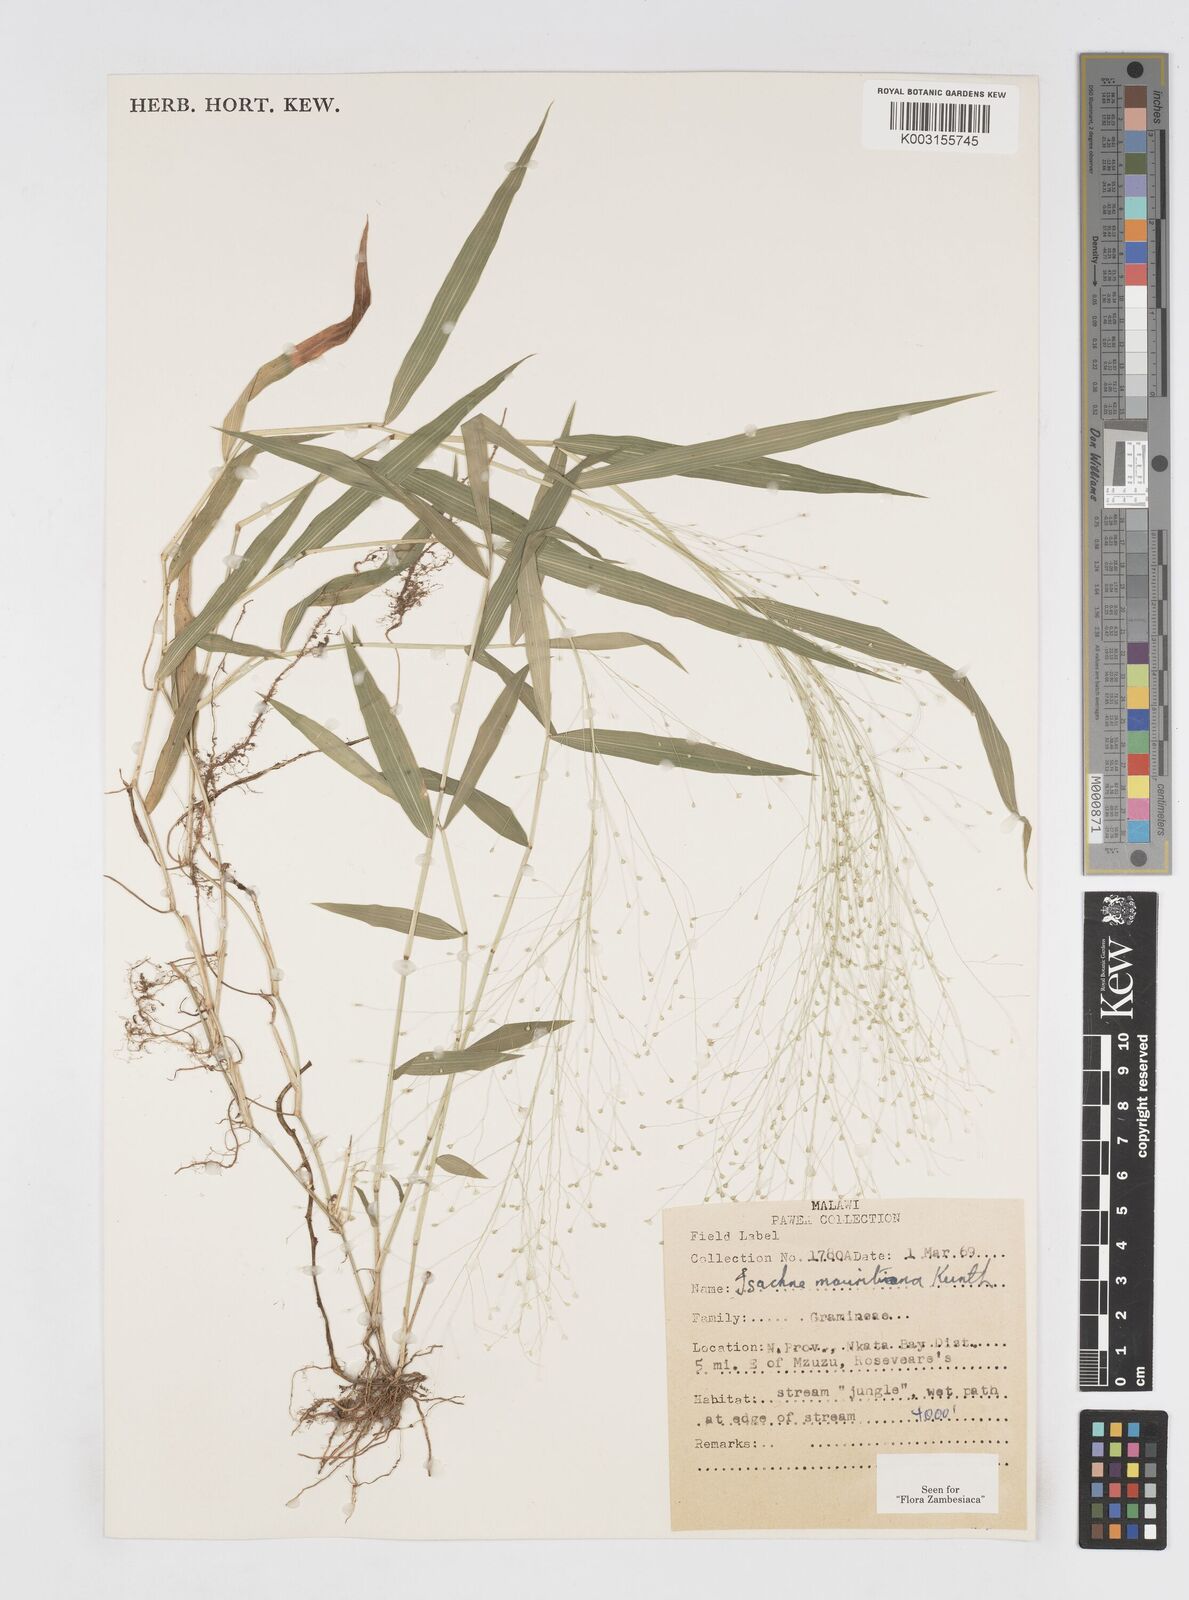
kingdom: Plantae
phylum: Tracheophyta
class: Liliopsida
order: Poales
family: Poaceae
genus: Isachne
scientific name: Isachne mauritiana
